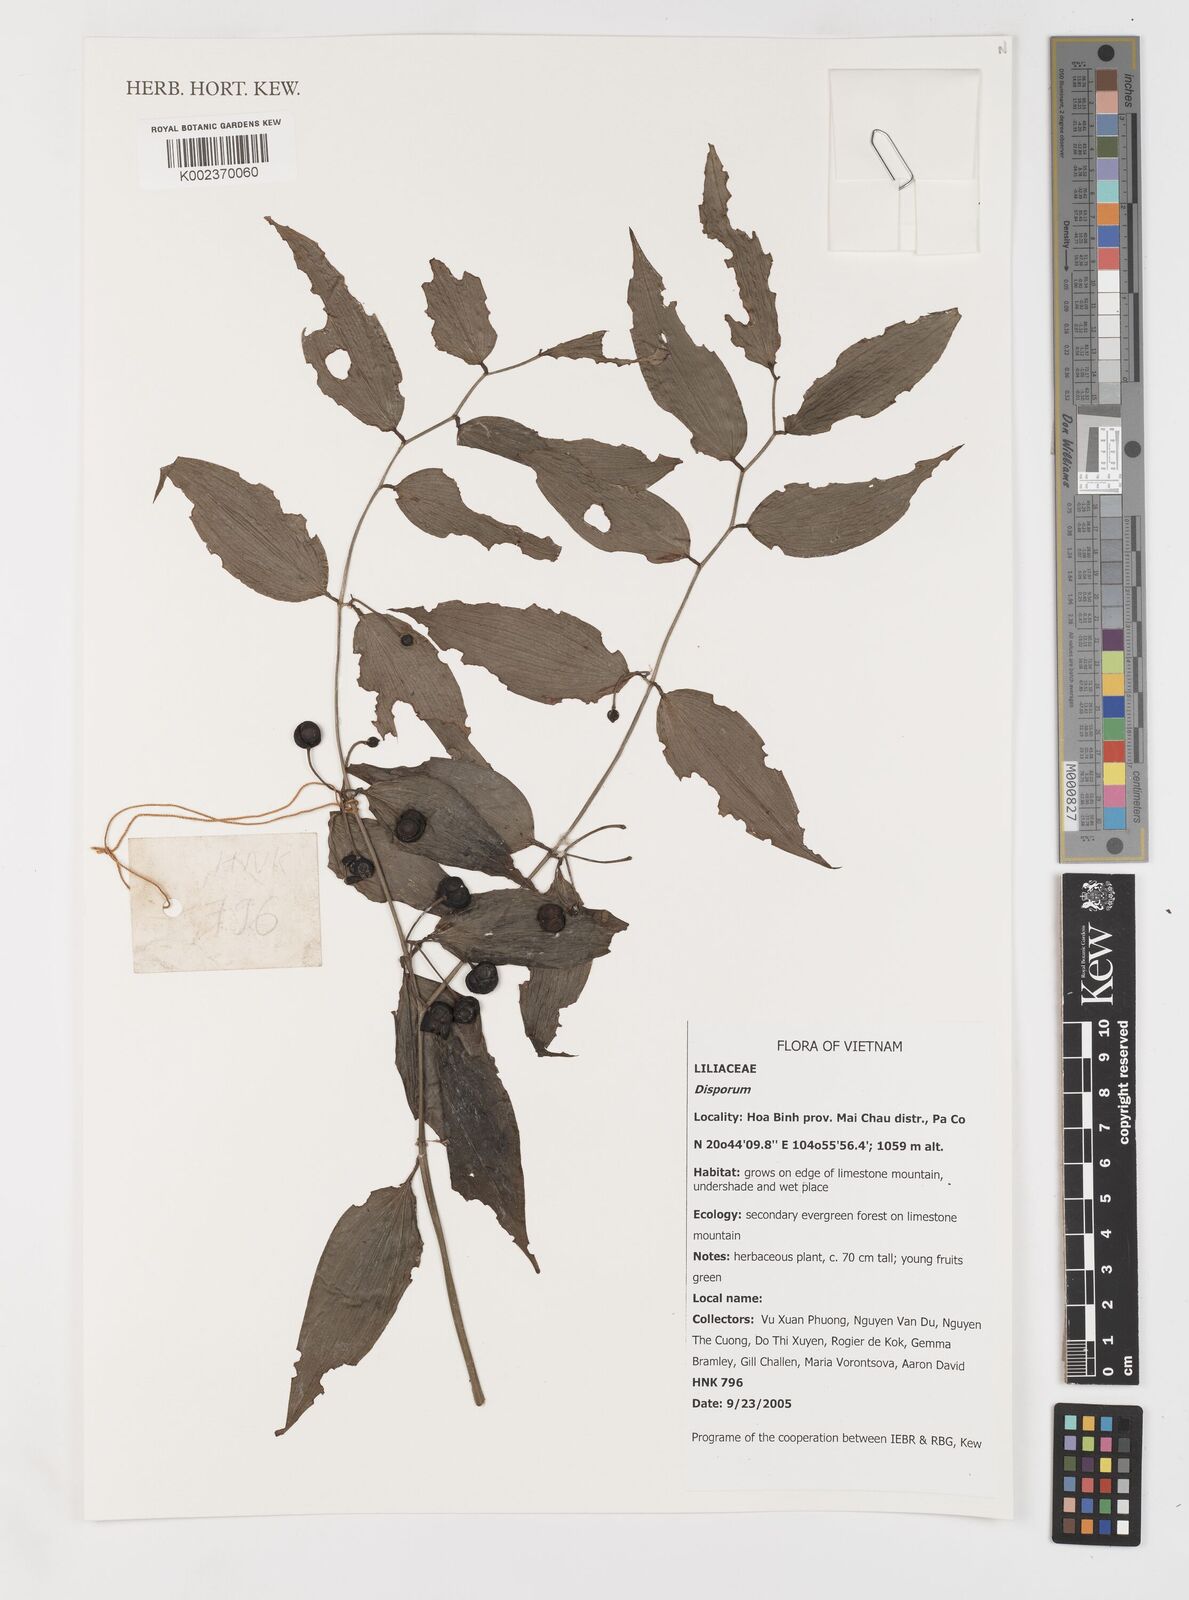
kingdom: Plantae
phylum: Tracheophyta
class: Liliopsida
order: Liliales
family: Colchicaceae
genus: Disporum
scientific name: Disporum
